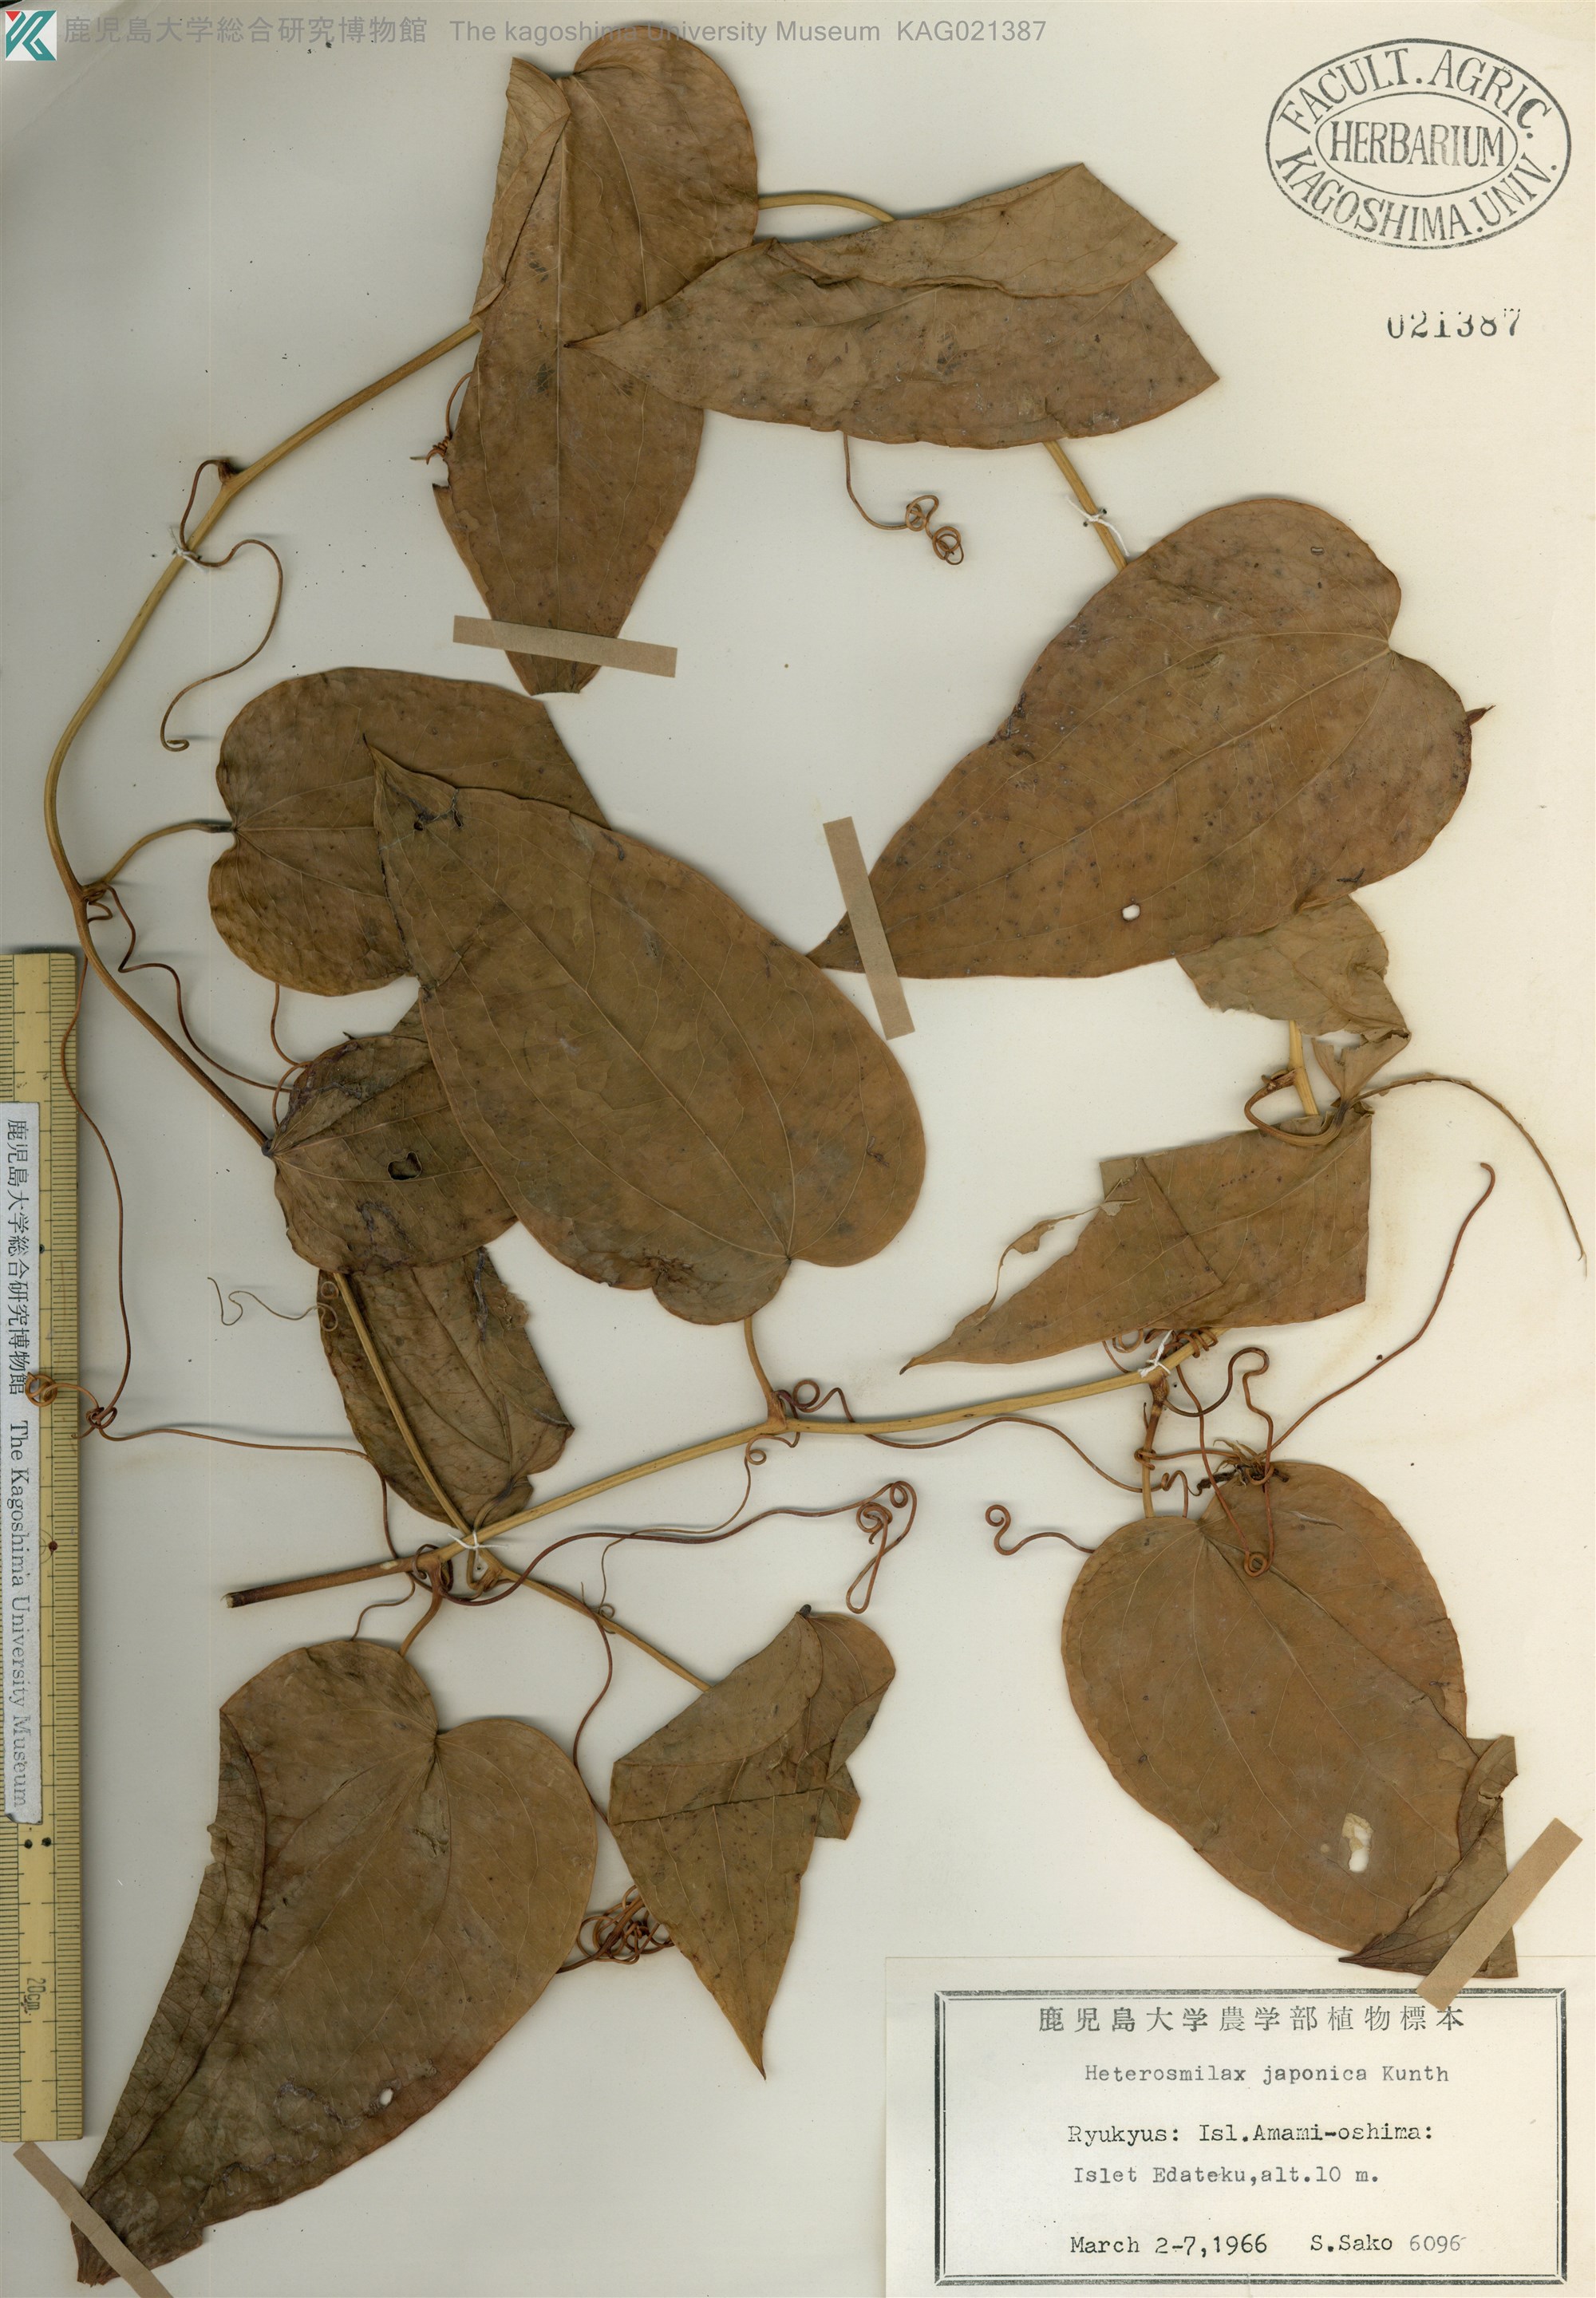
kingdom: Plantae
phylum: Tracheophyta
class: Liliopsida
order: Liliales
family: Smilacaceae
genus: Smilax
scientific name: Smilax insularis
